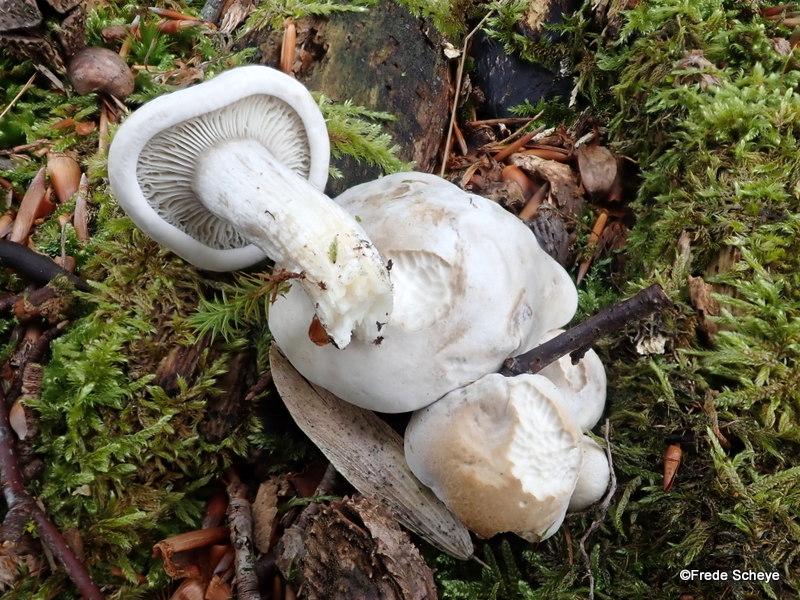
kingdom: Fungi
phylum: Basidiomycota
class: Agaricomycetes
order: Agaricales
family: Entolomataceae
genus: Clitopilus
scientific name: Clitopilus prunulus
